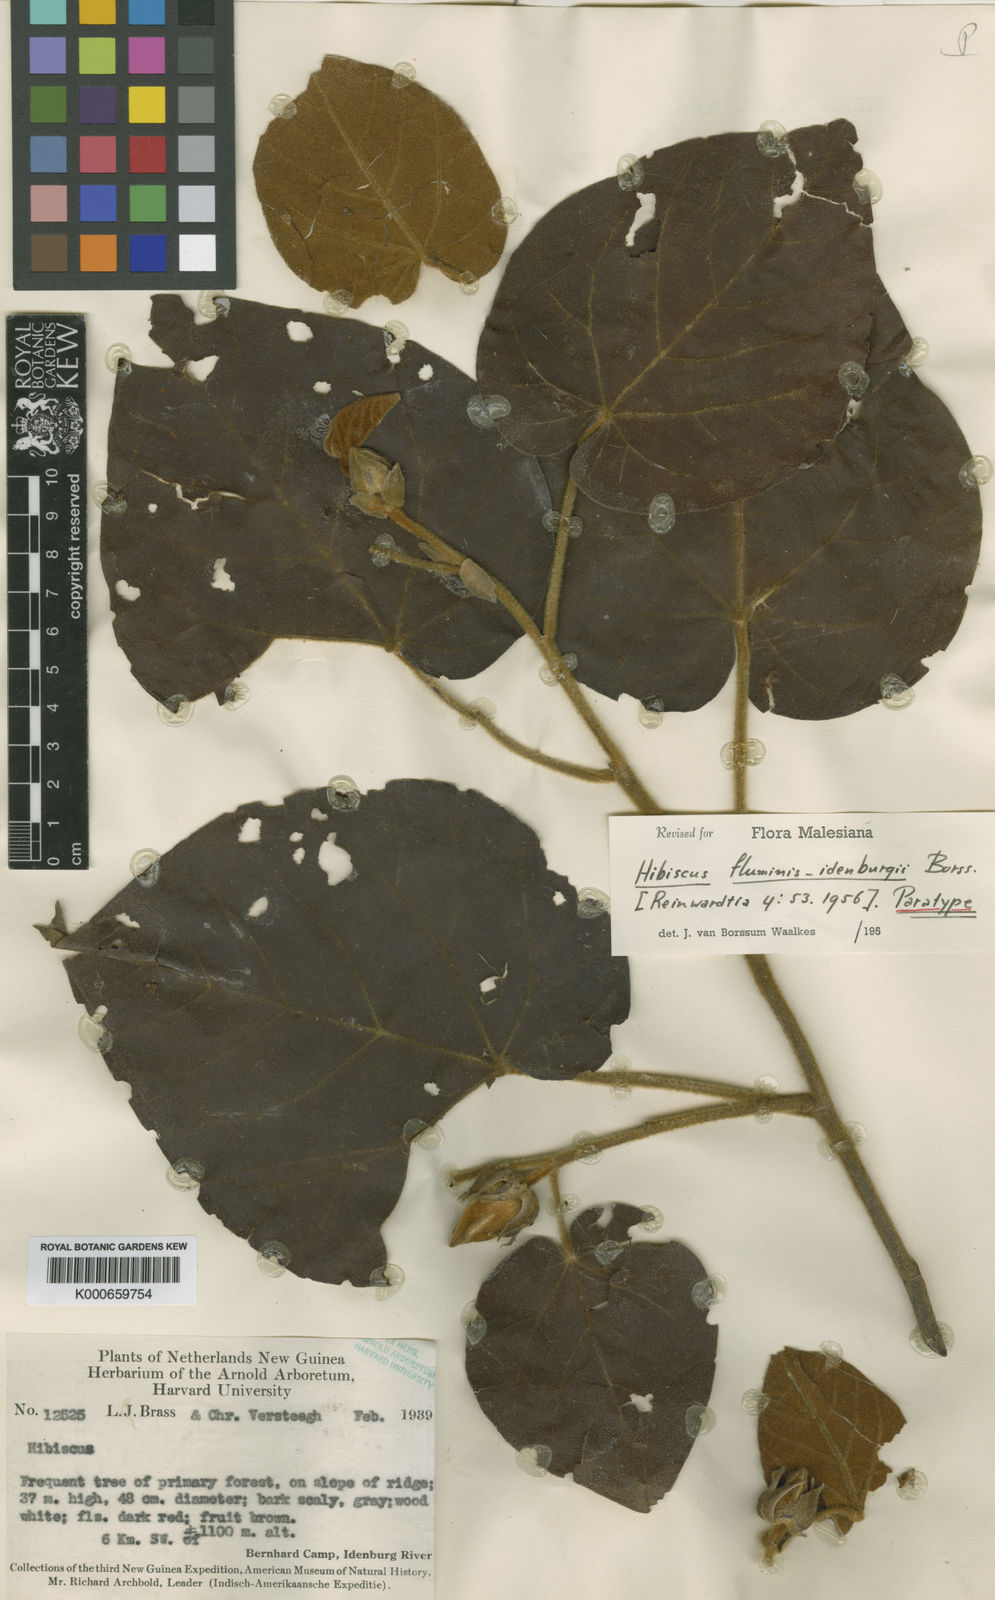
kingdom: Plantae
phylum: Tracheophyta
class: Magnoliopsida
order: Malvales
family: Malvaceae
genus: Talipariti
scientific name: Talipariti dalbertisii
